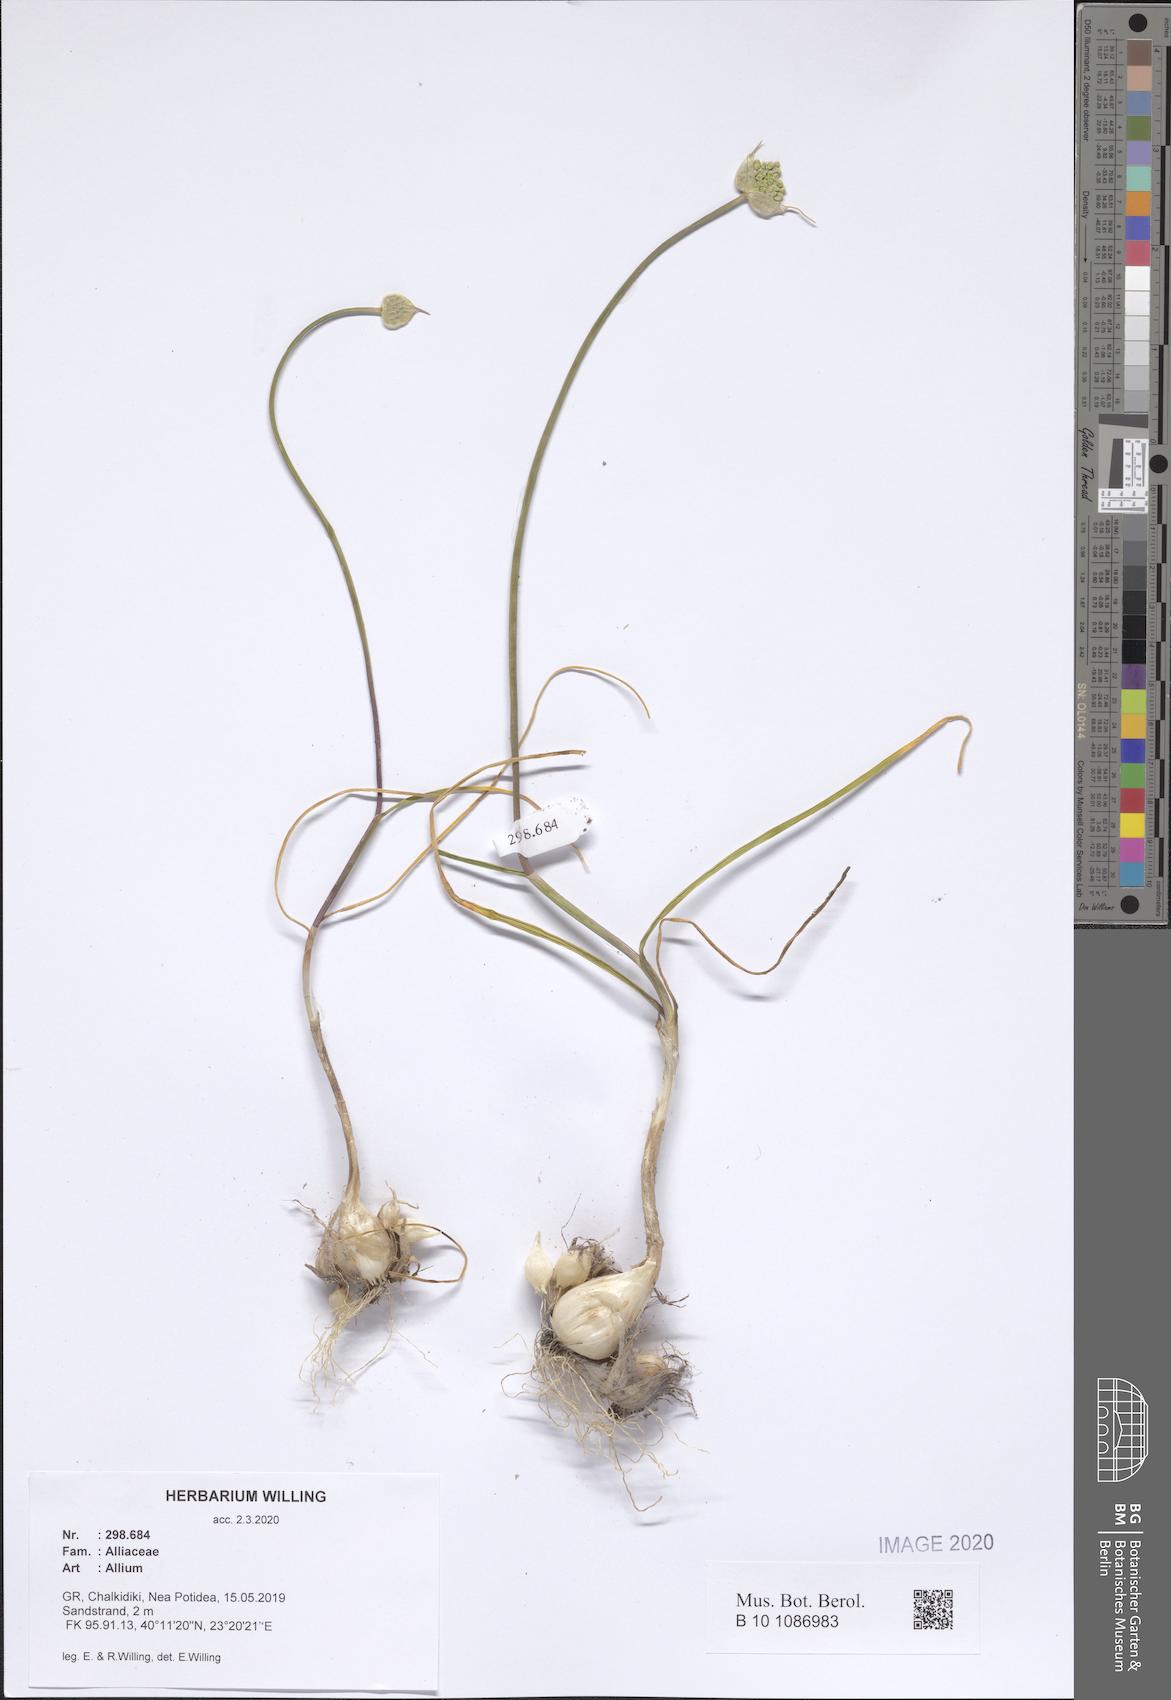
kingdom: Plantae
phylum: Tracheophyta
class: Liliopsida
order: Asparagales
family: Amaryllidaceae
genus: Allium
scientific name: Allium
